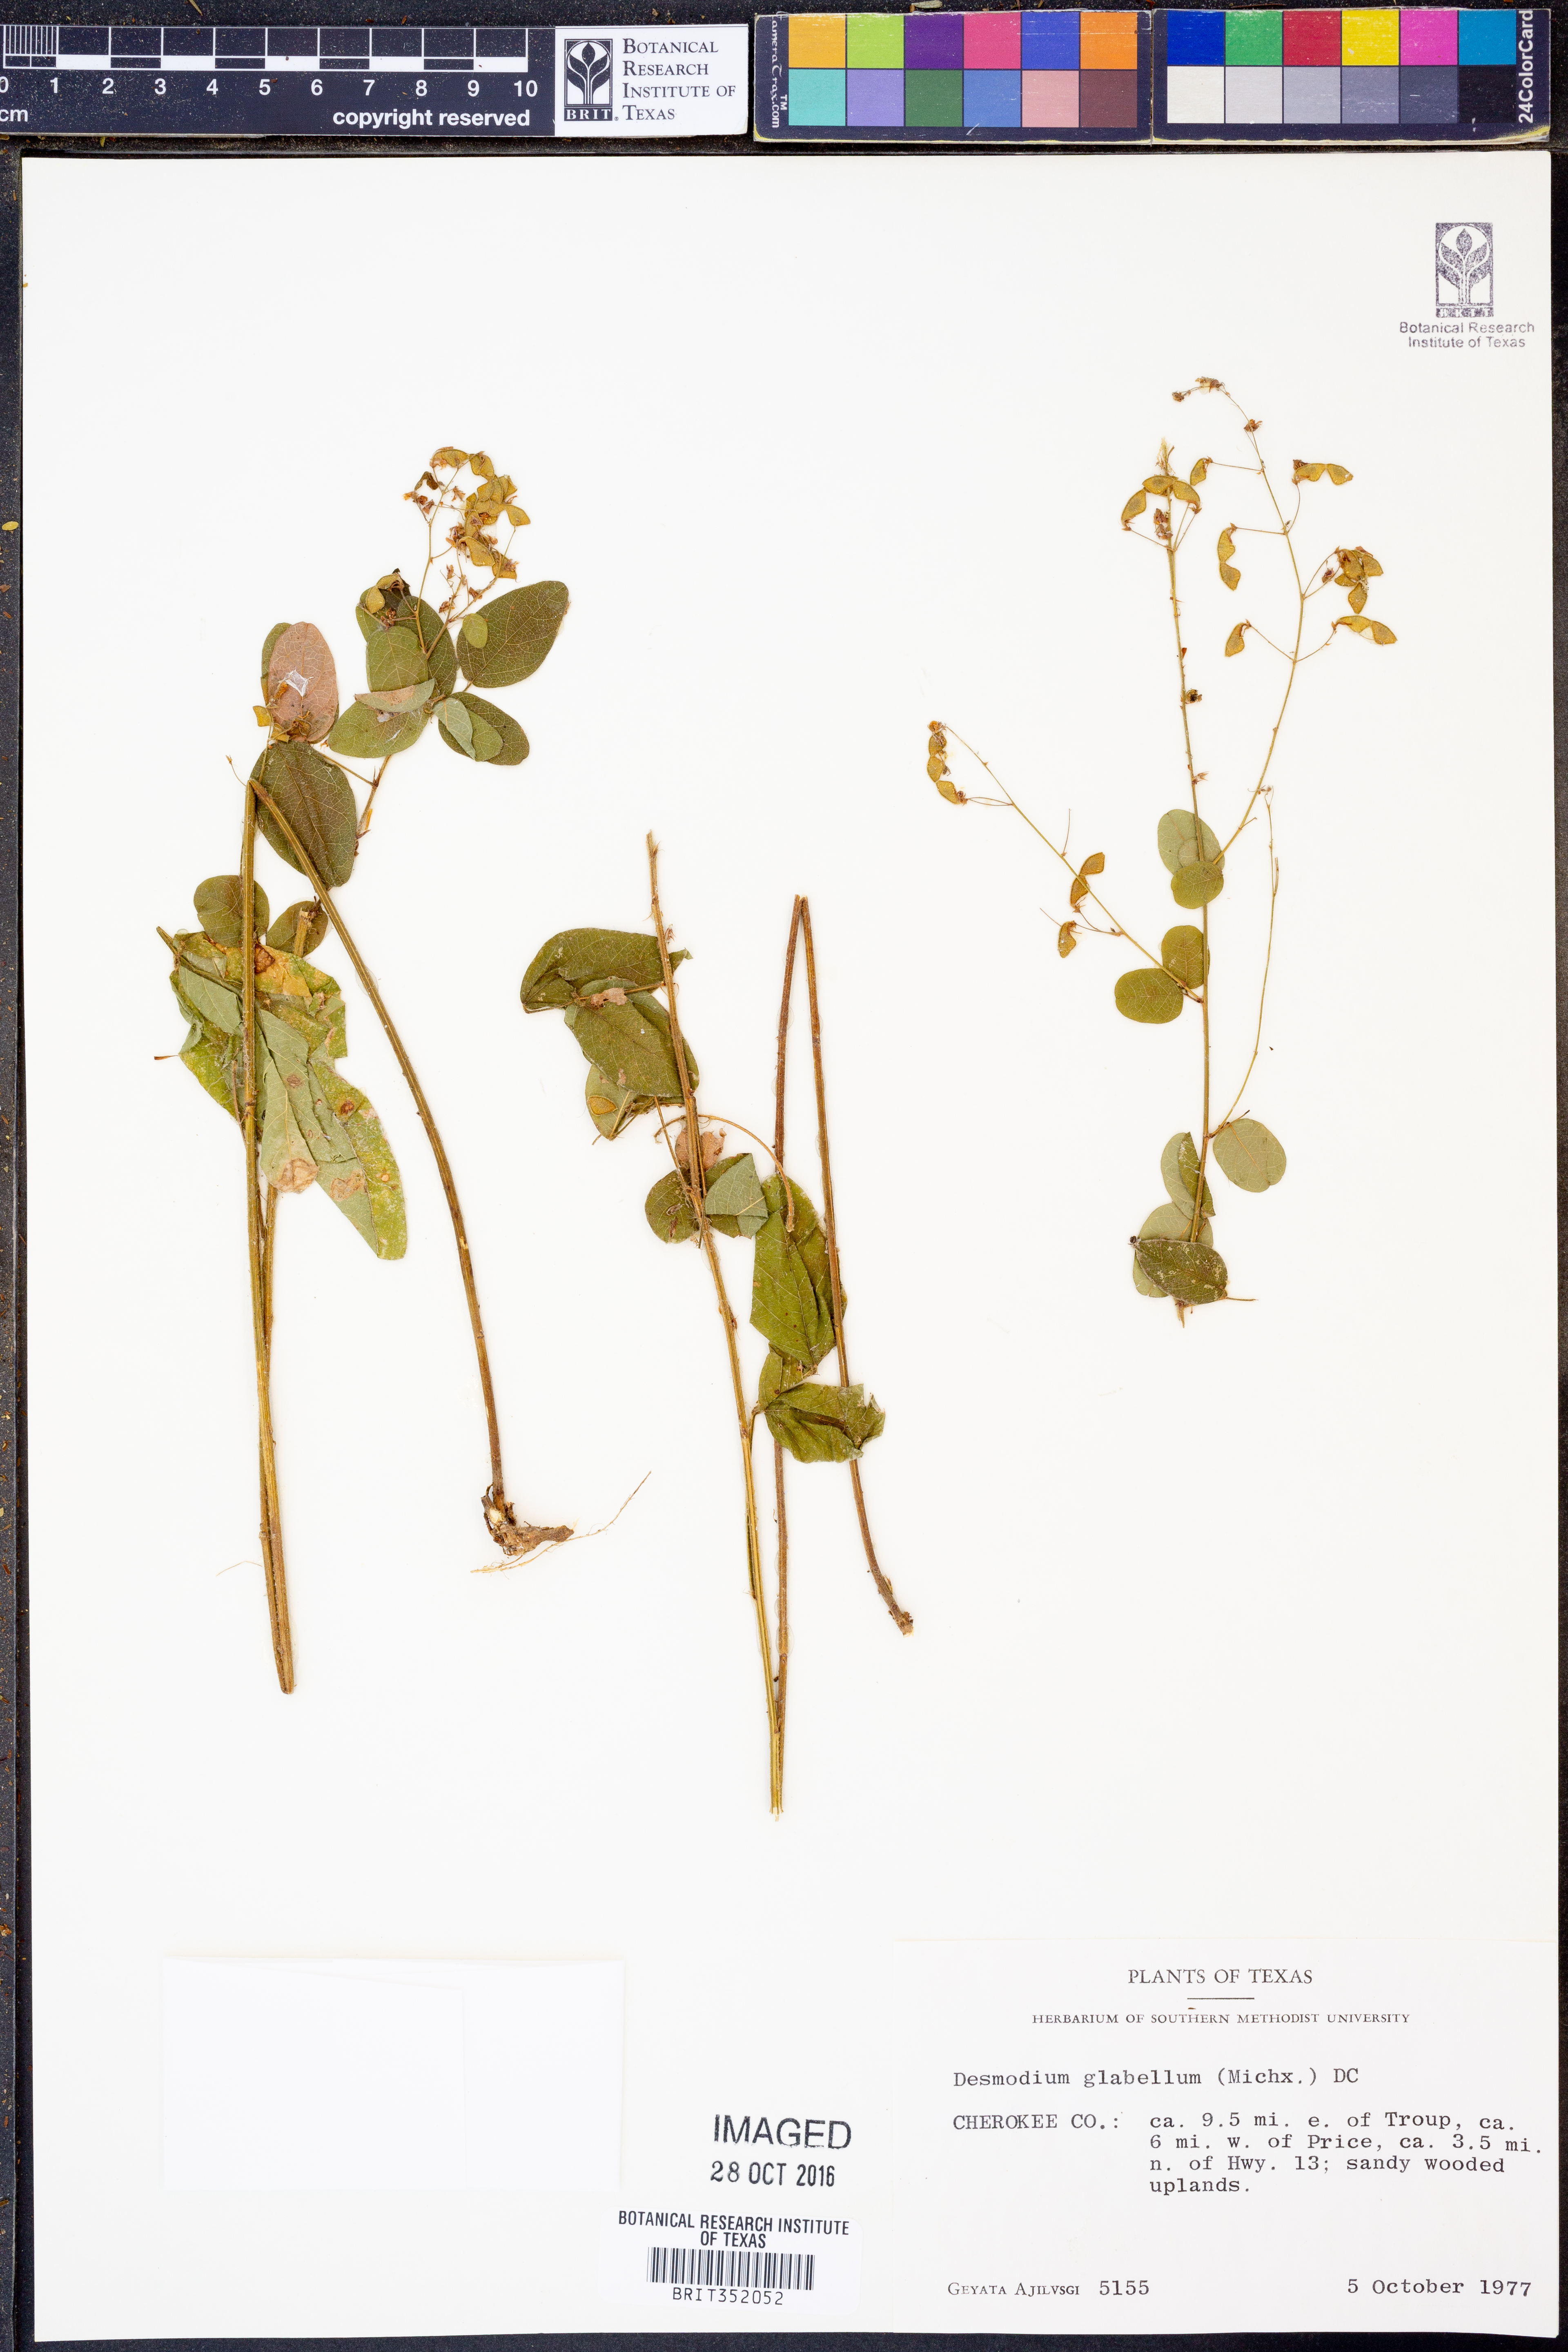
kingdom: Plantae
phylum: Tracheophyta
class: Magnoliopsida
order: Fabales
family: Fabaceae
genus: Desmodium
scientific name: Desmodium glabellum
